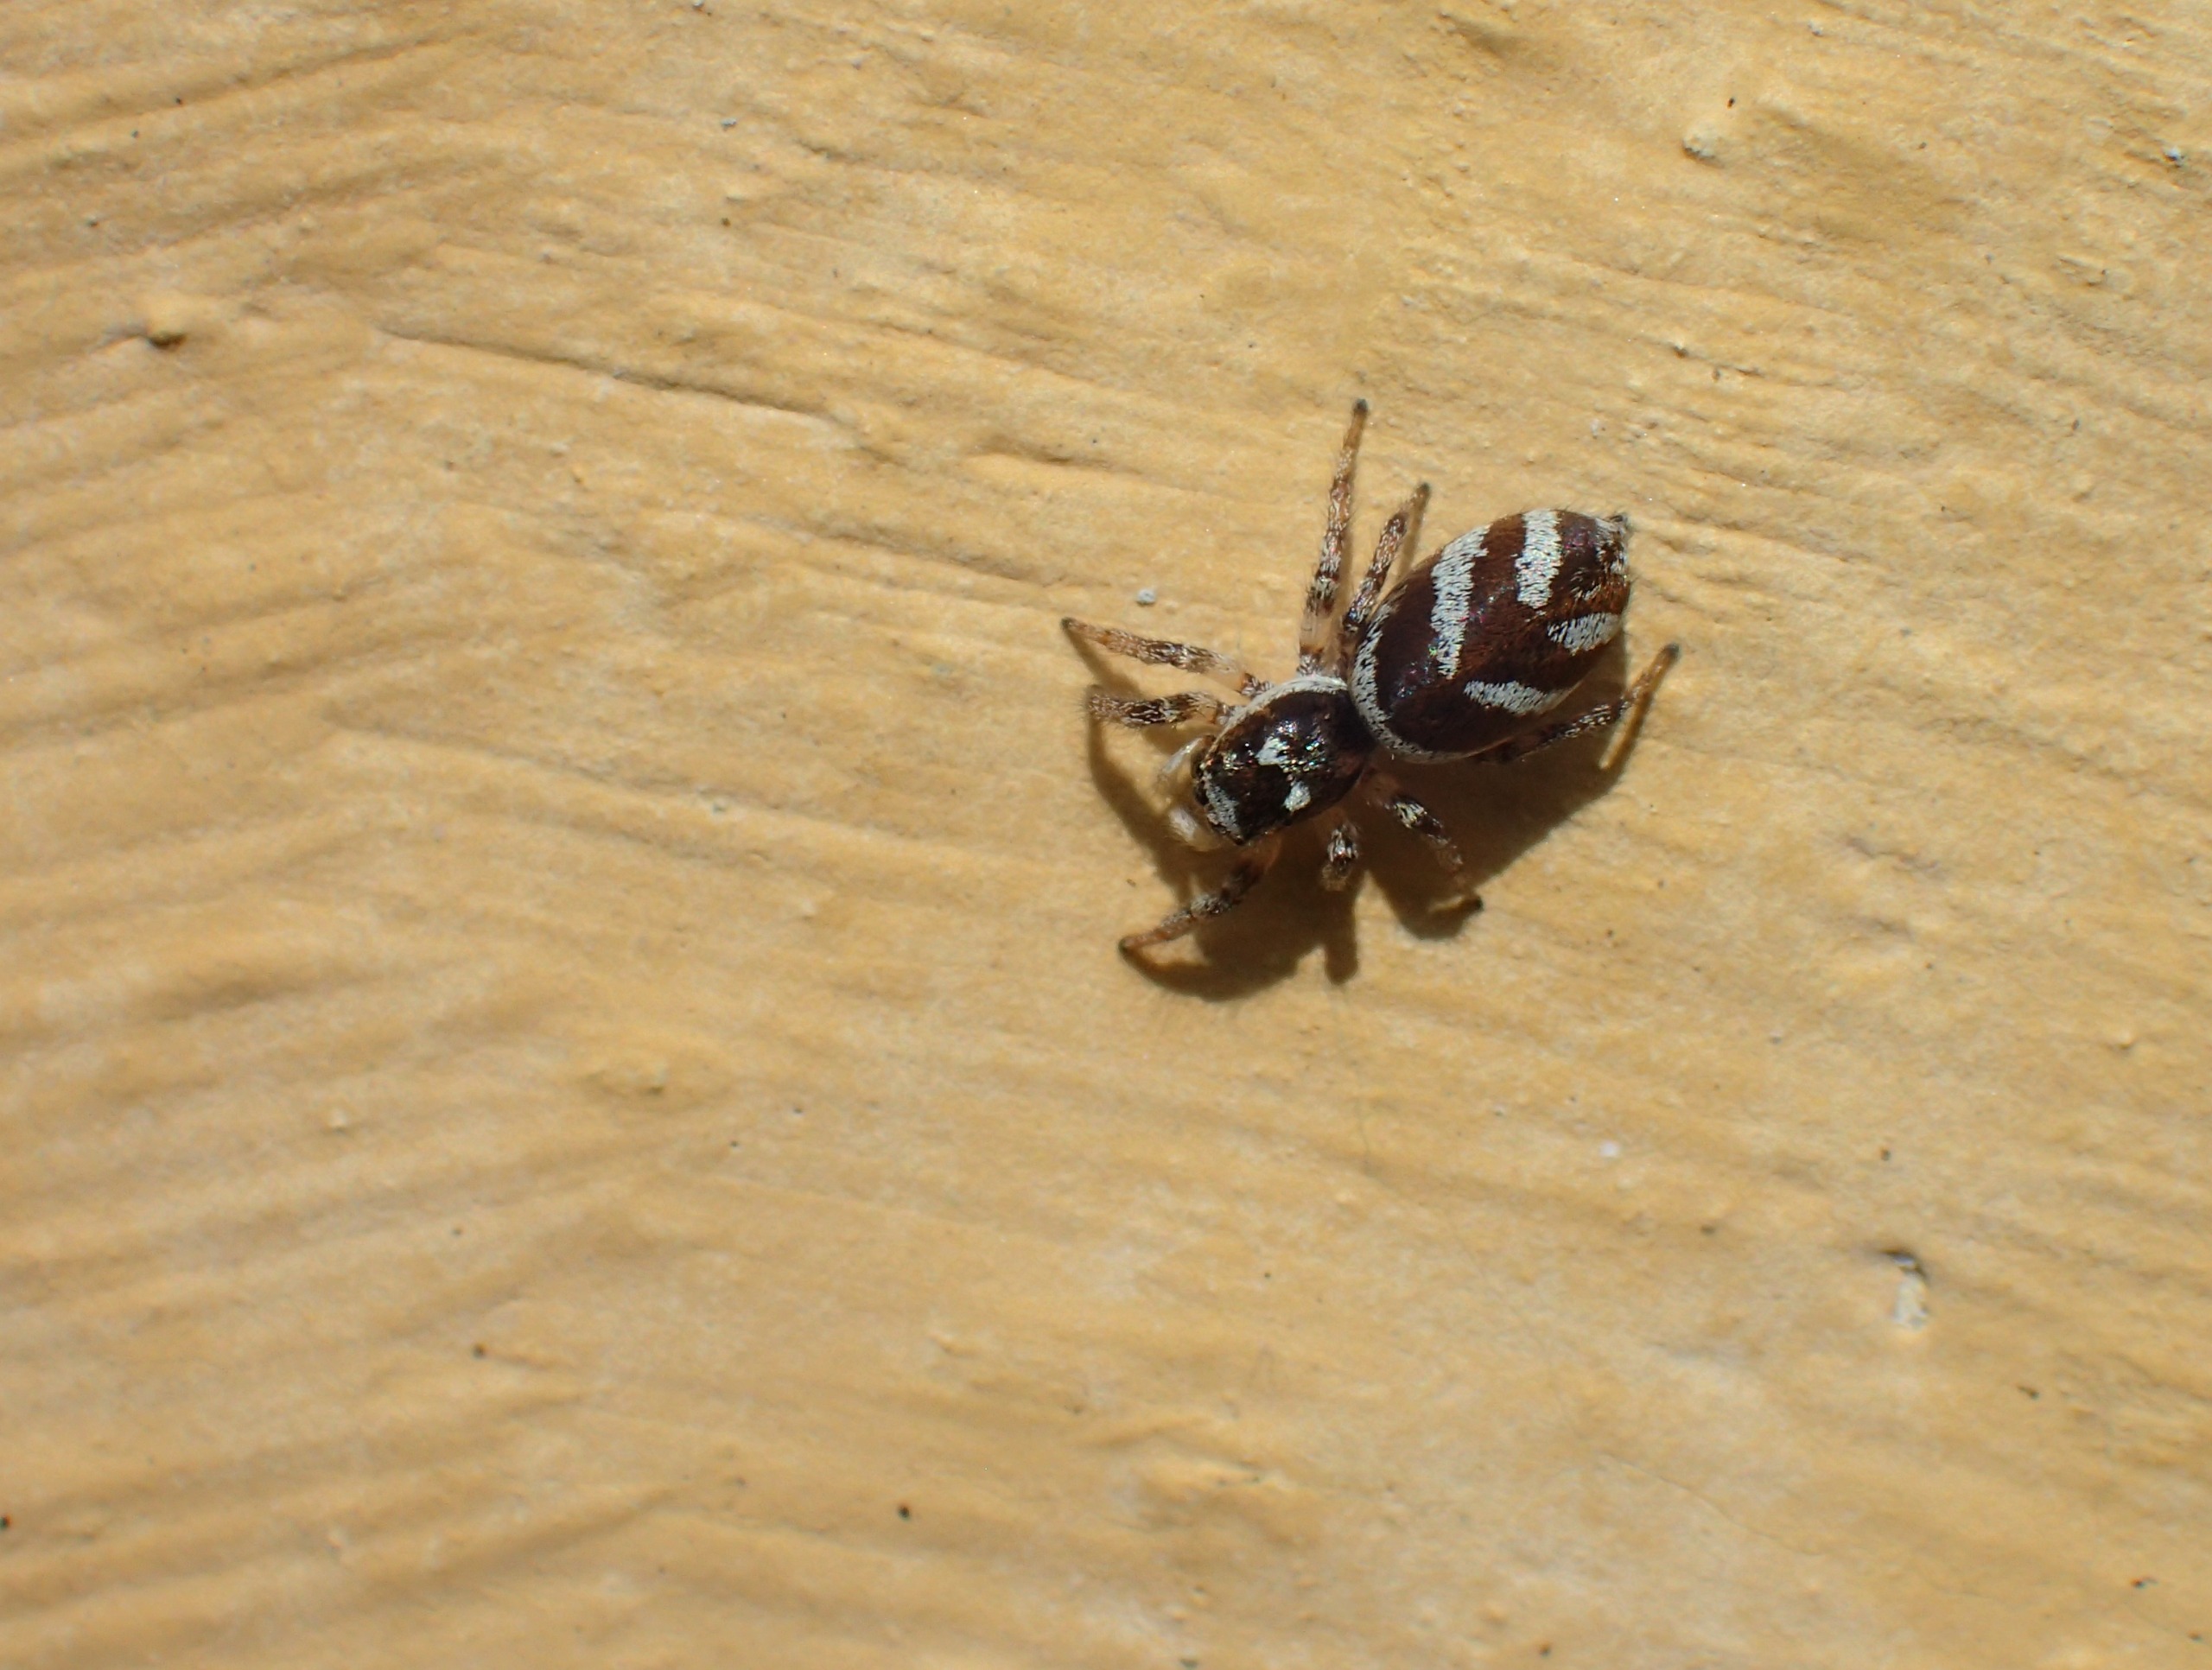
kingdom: Animalia
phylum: Arthropoda
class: Arachnida
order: Araneae
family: Salticidae
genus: Salticus
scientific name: Salticus scenicus
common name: Almindelig zebraedderkop
